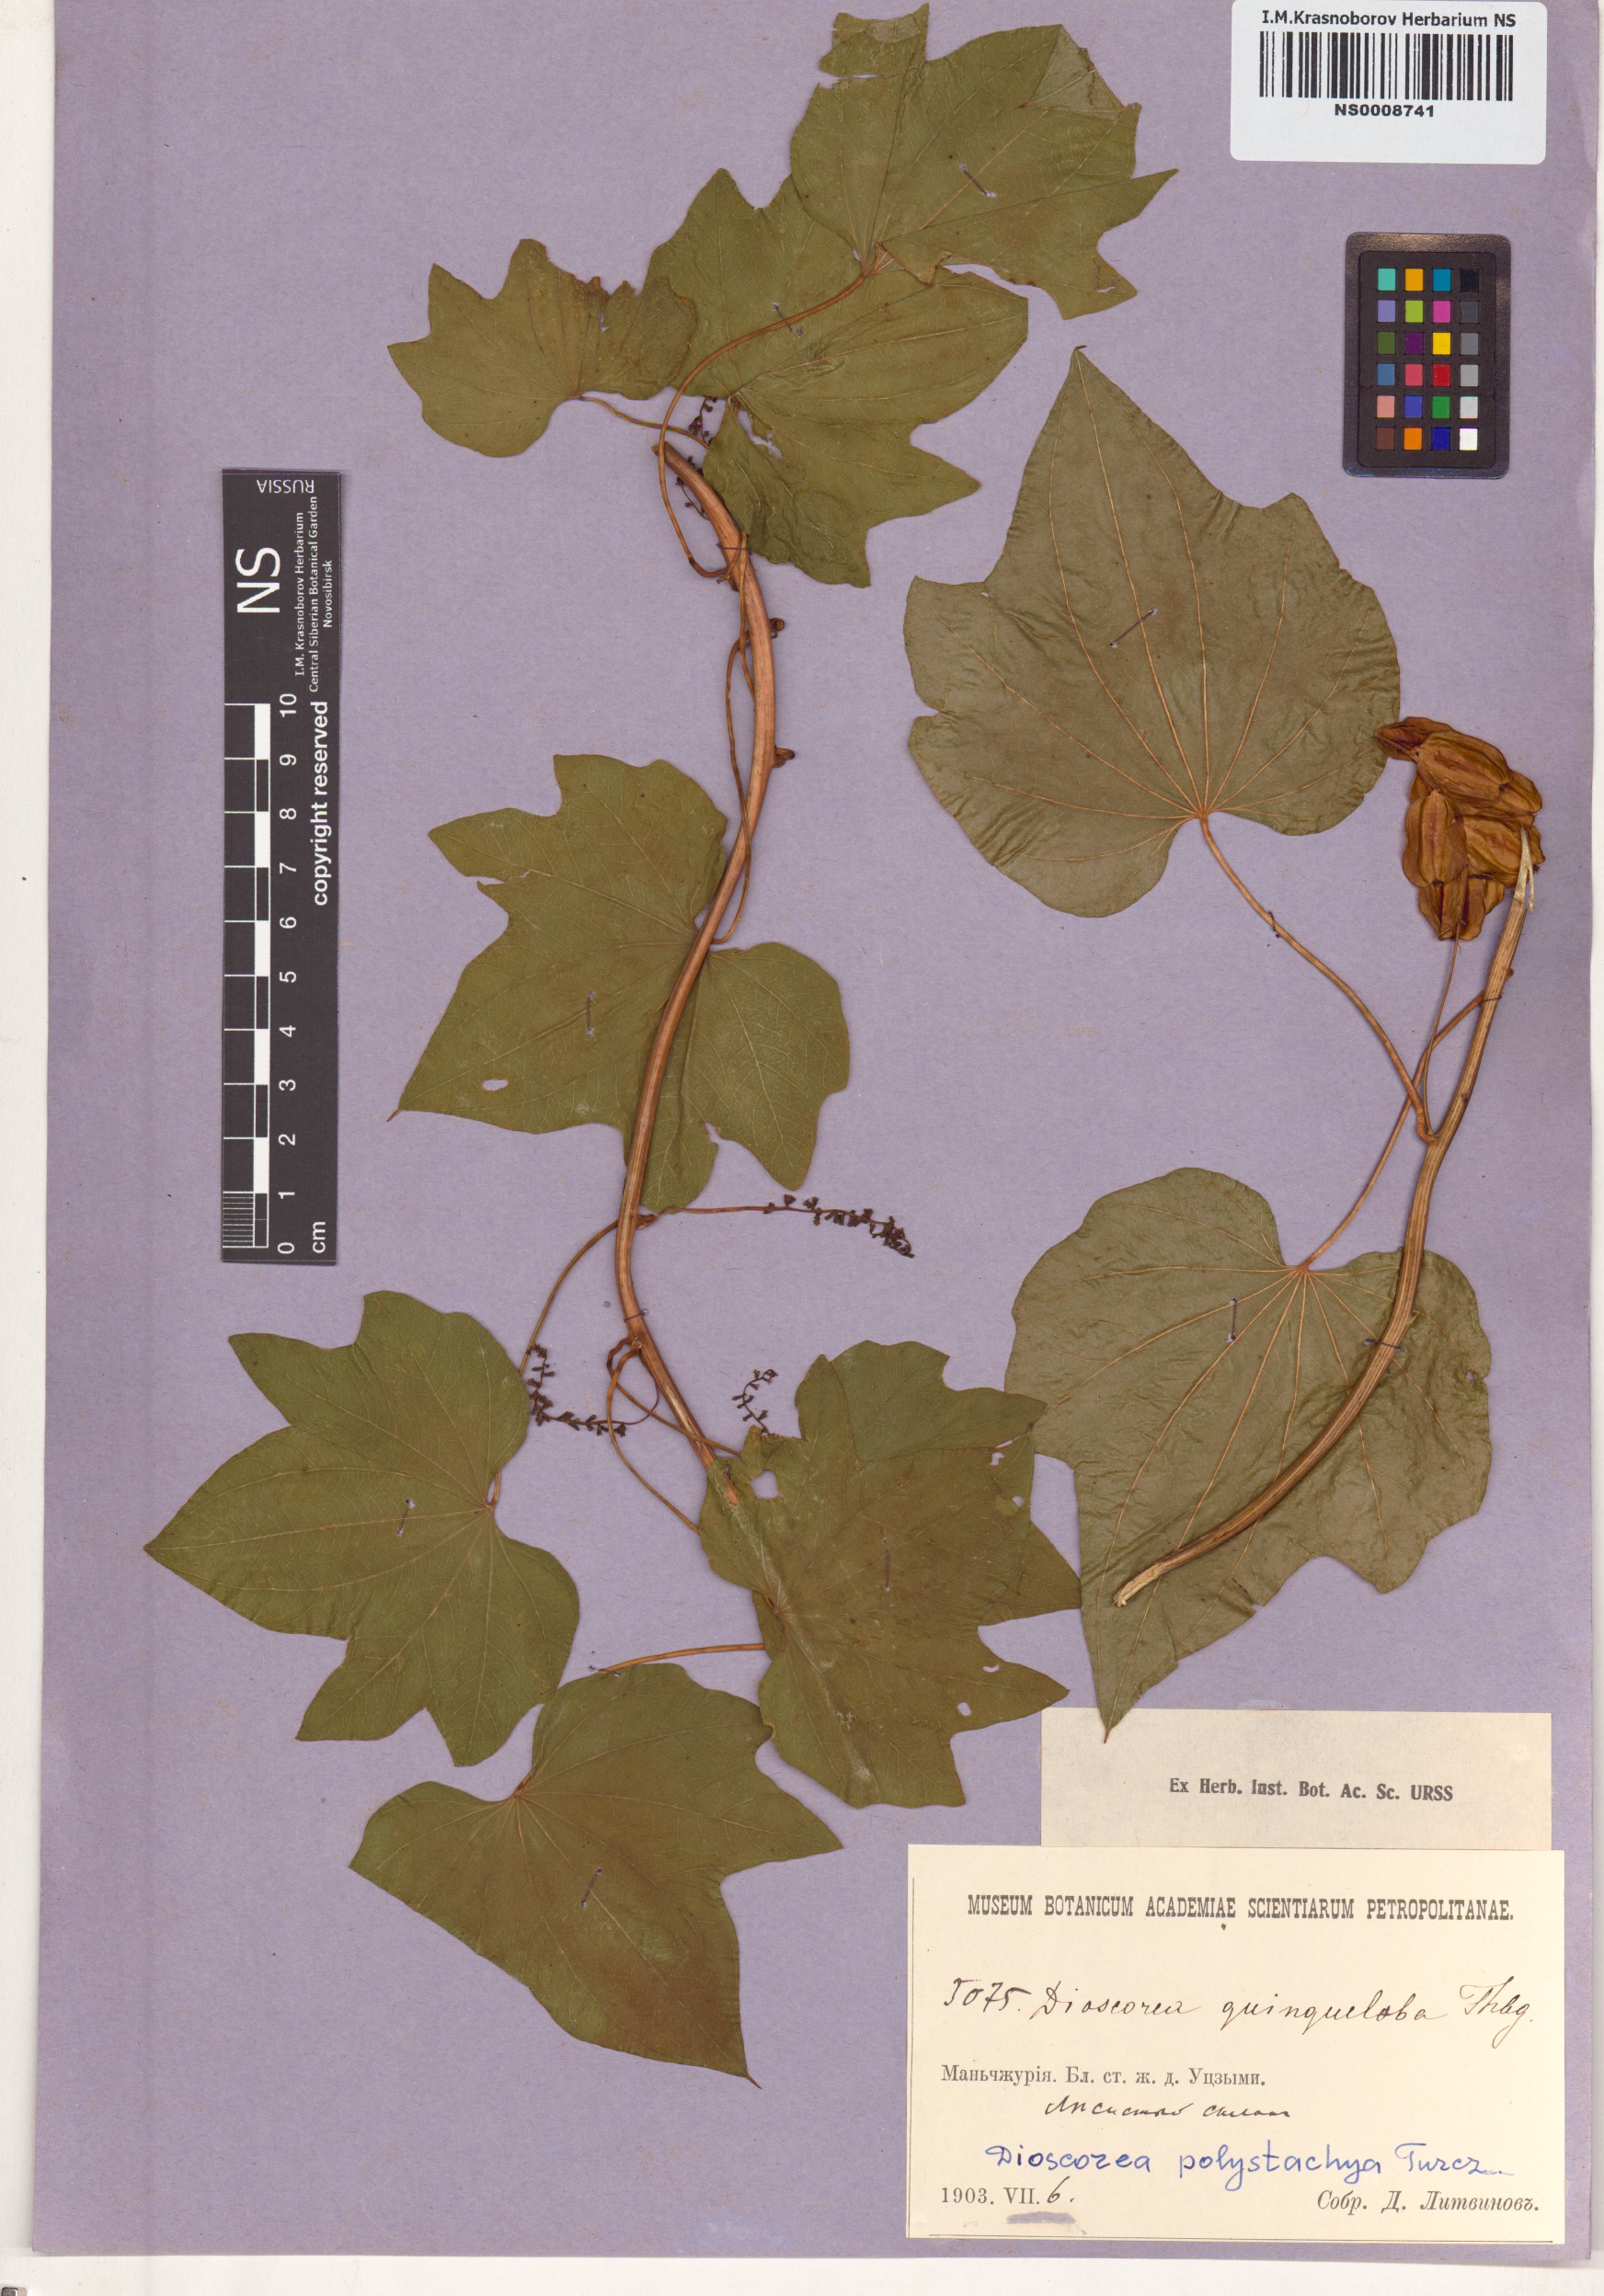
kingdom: Plantae
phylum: Tracheophyta
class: Liliopsida
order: Dioscoreales
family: Dioscoreaceae
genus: Dioscorea
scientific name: Dioscorea polystachya
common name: Chinese yam
